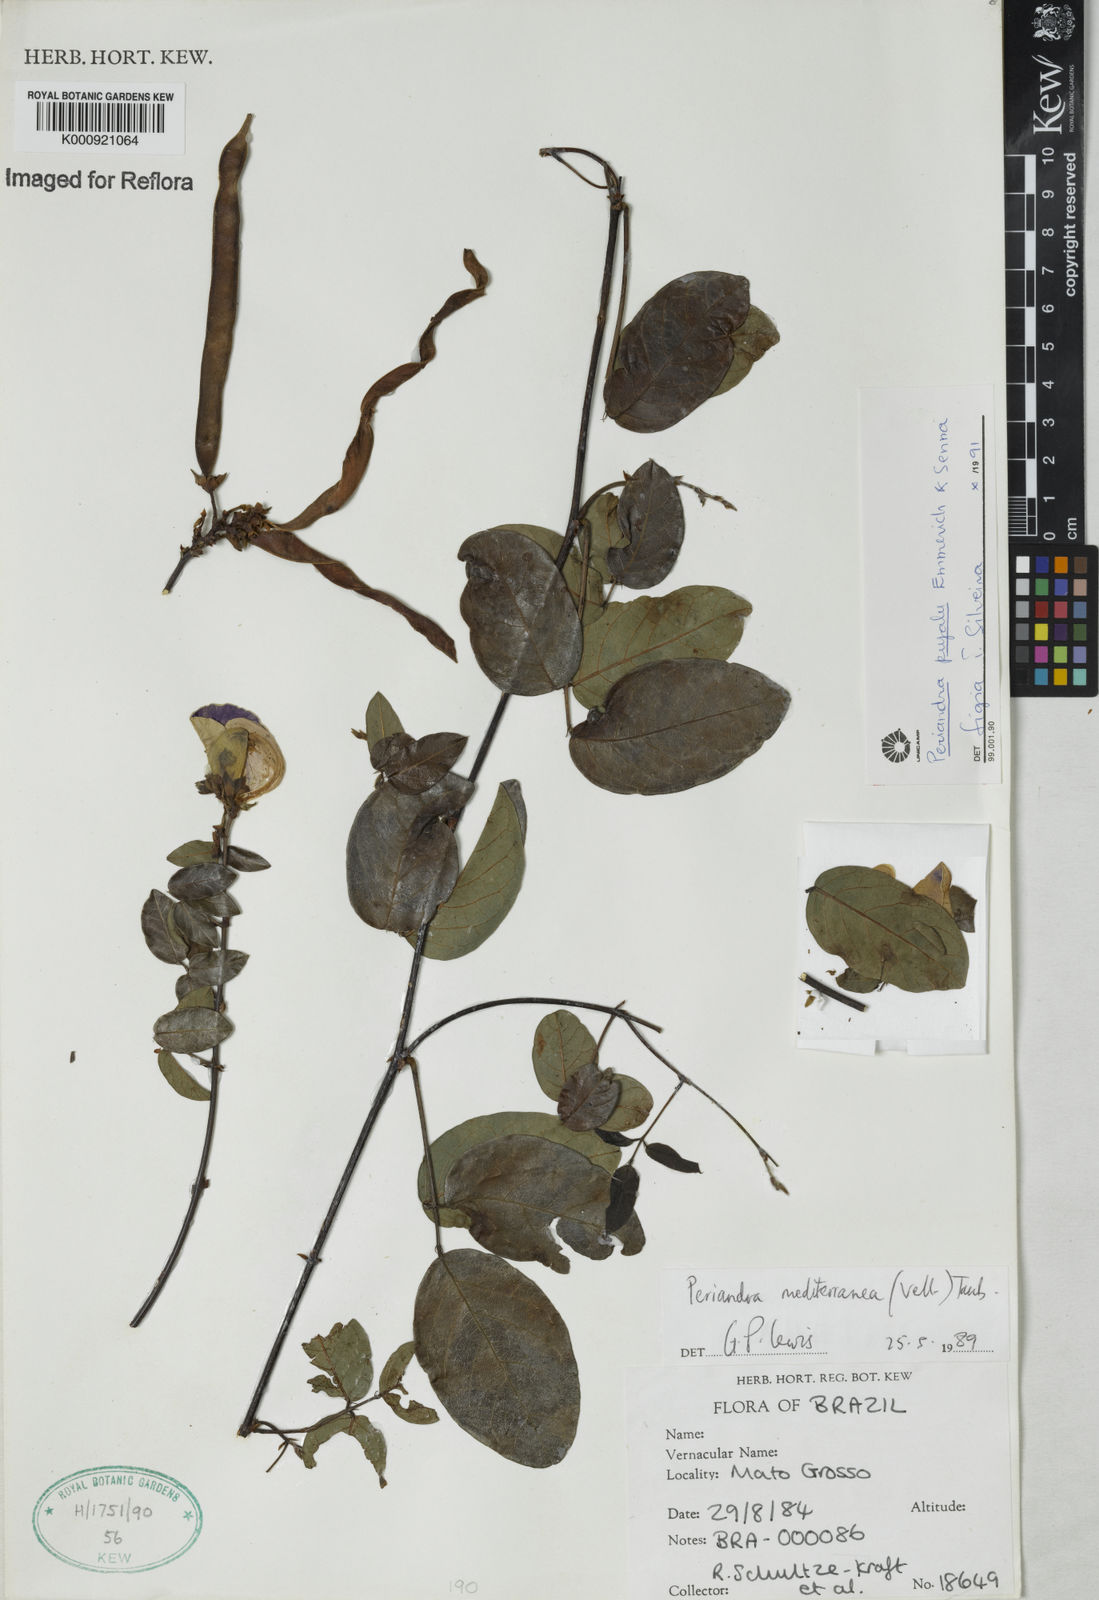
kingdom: Plantae
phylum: Tracheophyta
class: Magnoliopsida
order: Fabales
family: Fabaceae
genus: Periandra
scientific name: Periandra pujalu
